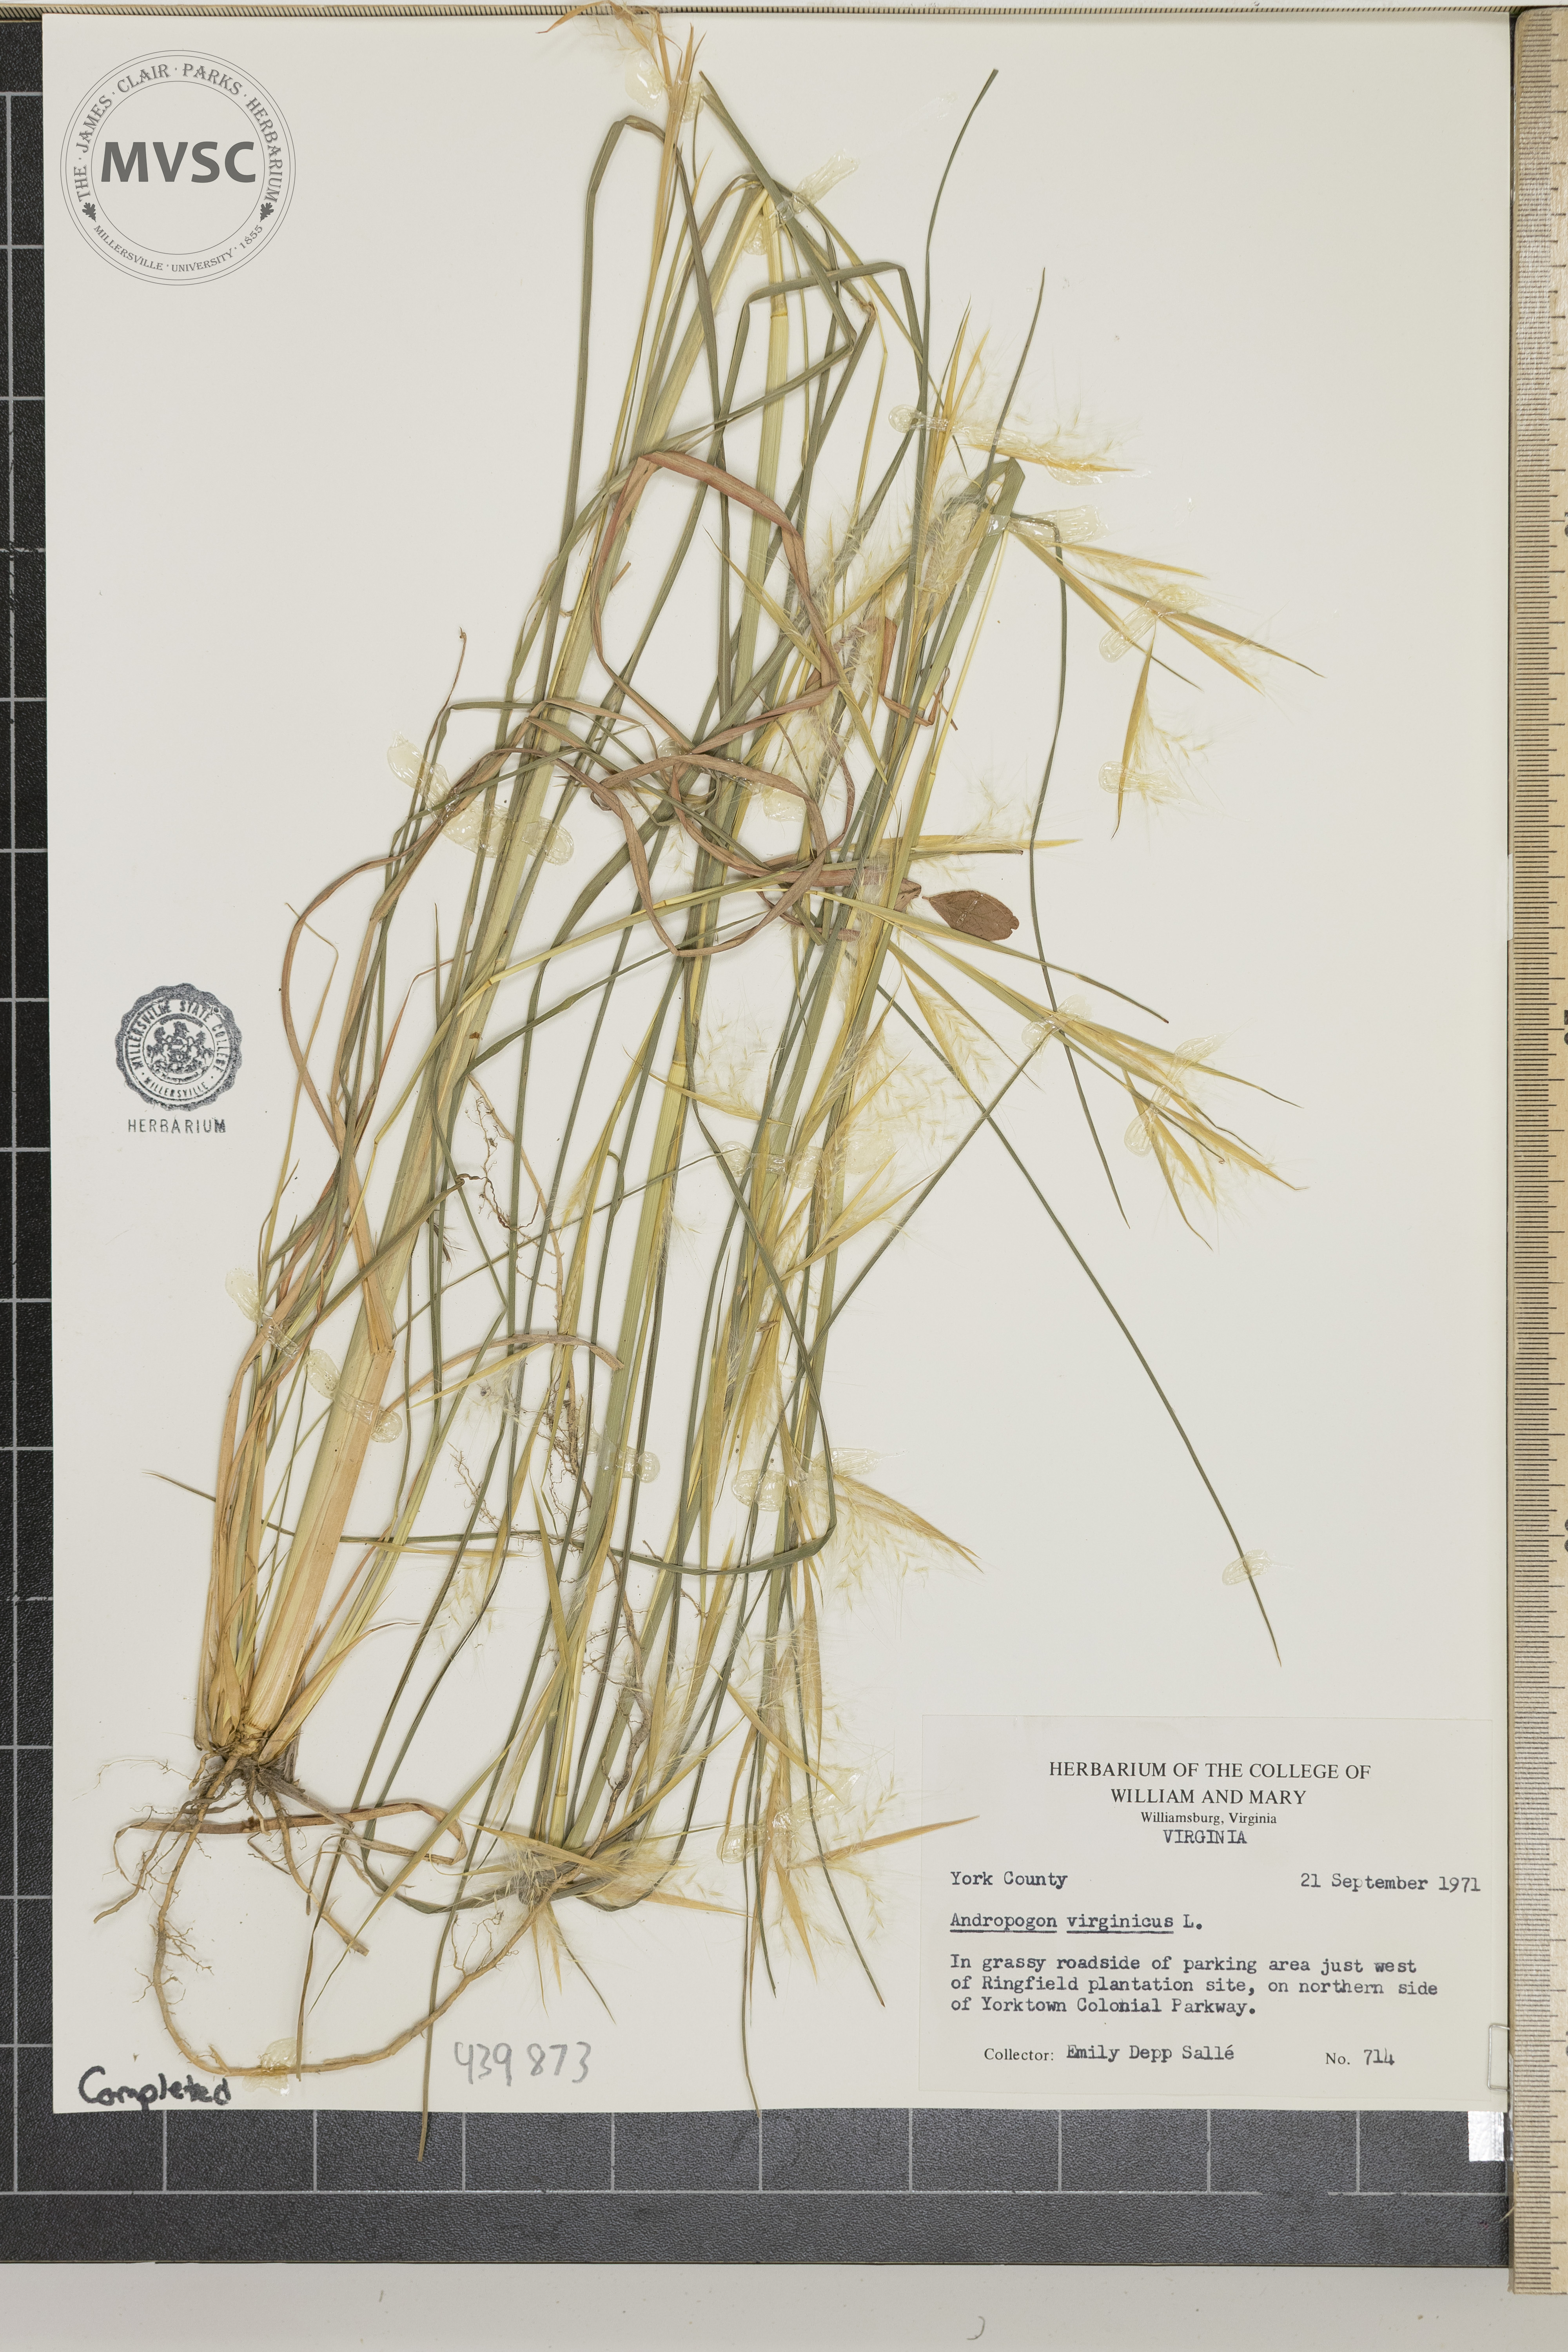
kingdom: Plantae
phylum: Tracheophyta
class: Liliopsida
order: Poales
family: Poaceae
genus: Andropogon
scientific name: Andropogon virginicus
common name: Broomsedge bluestem
